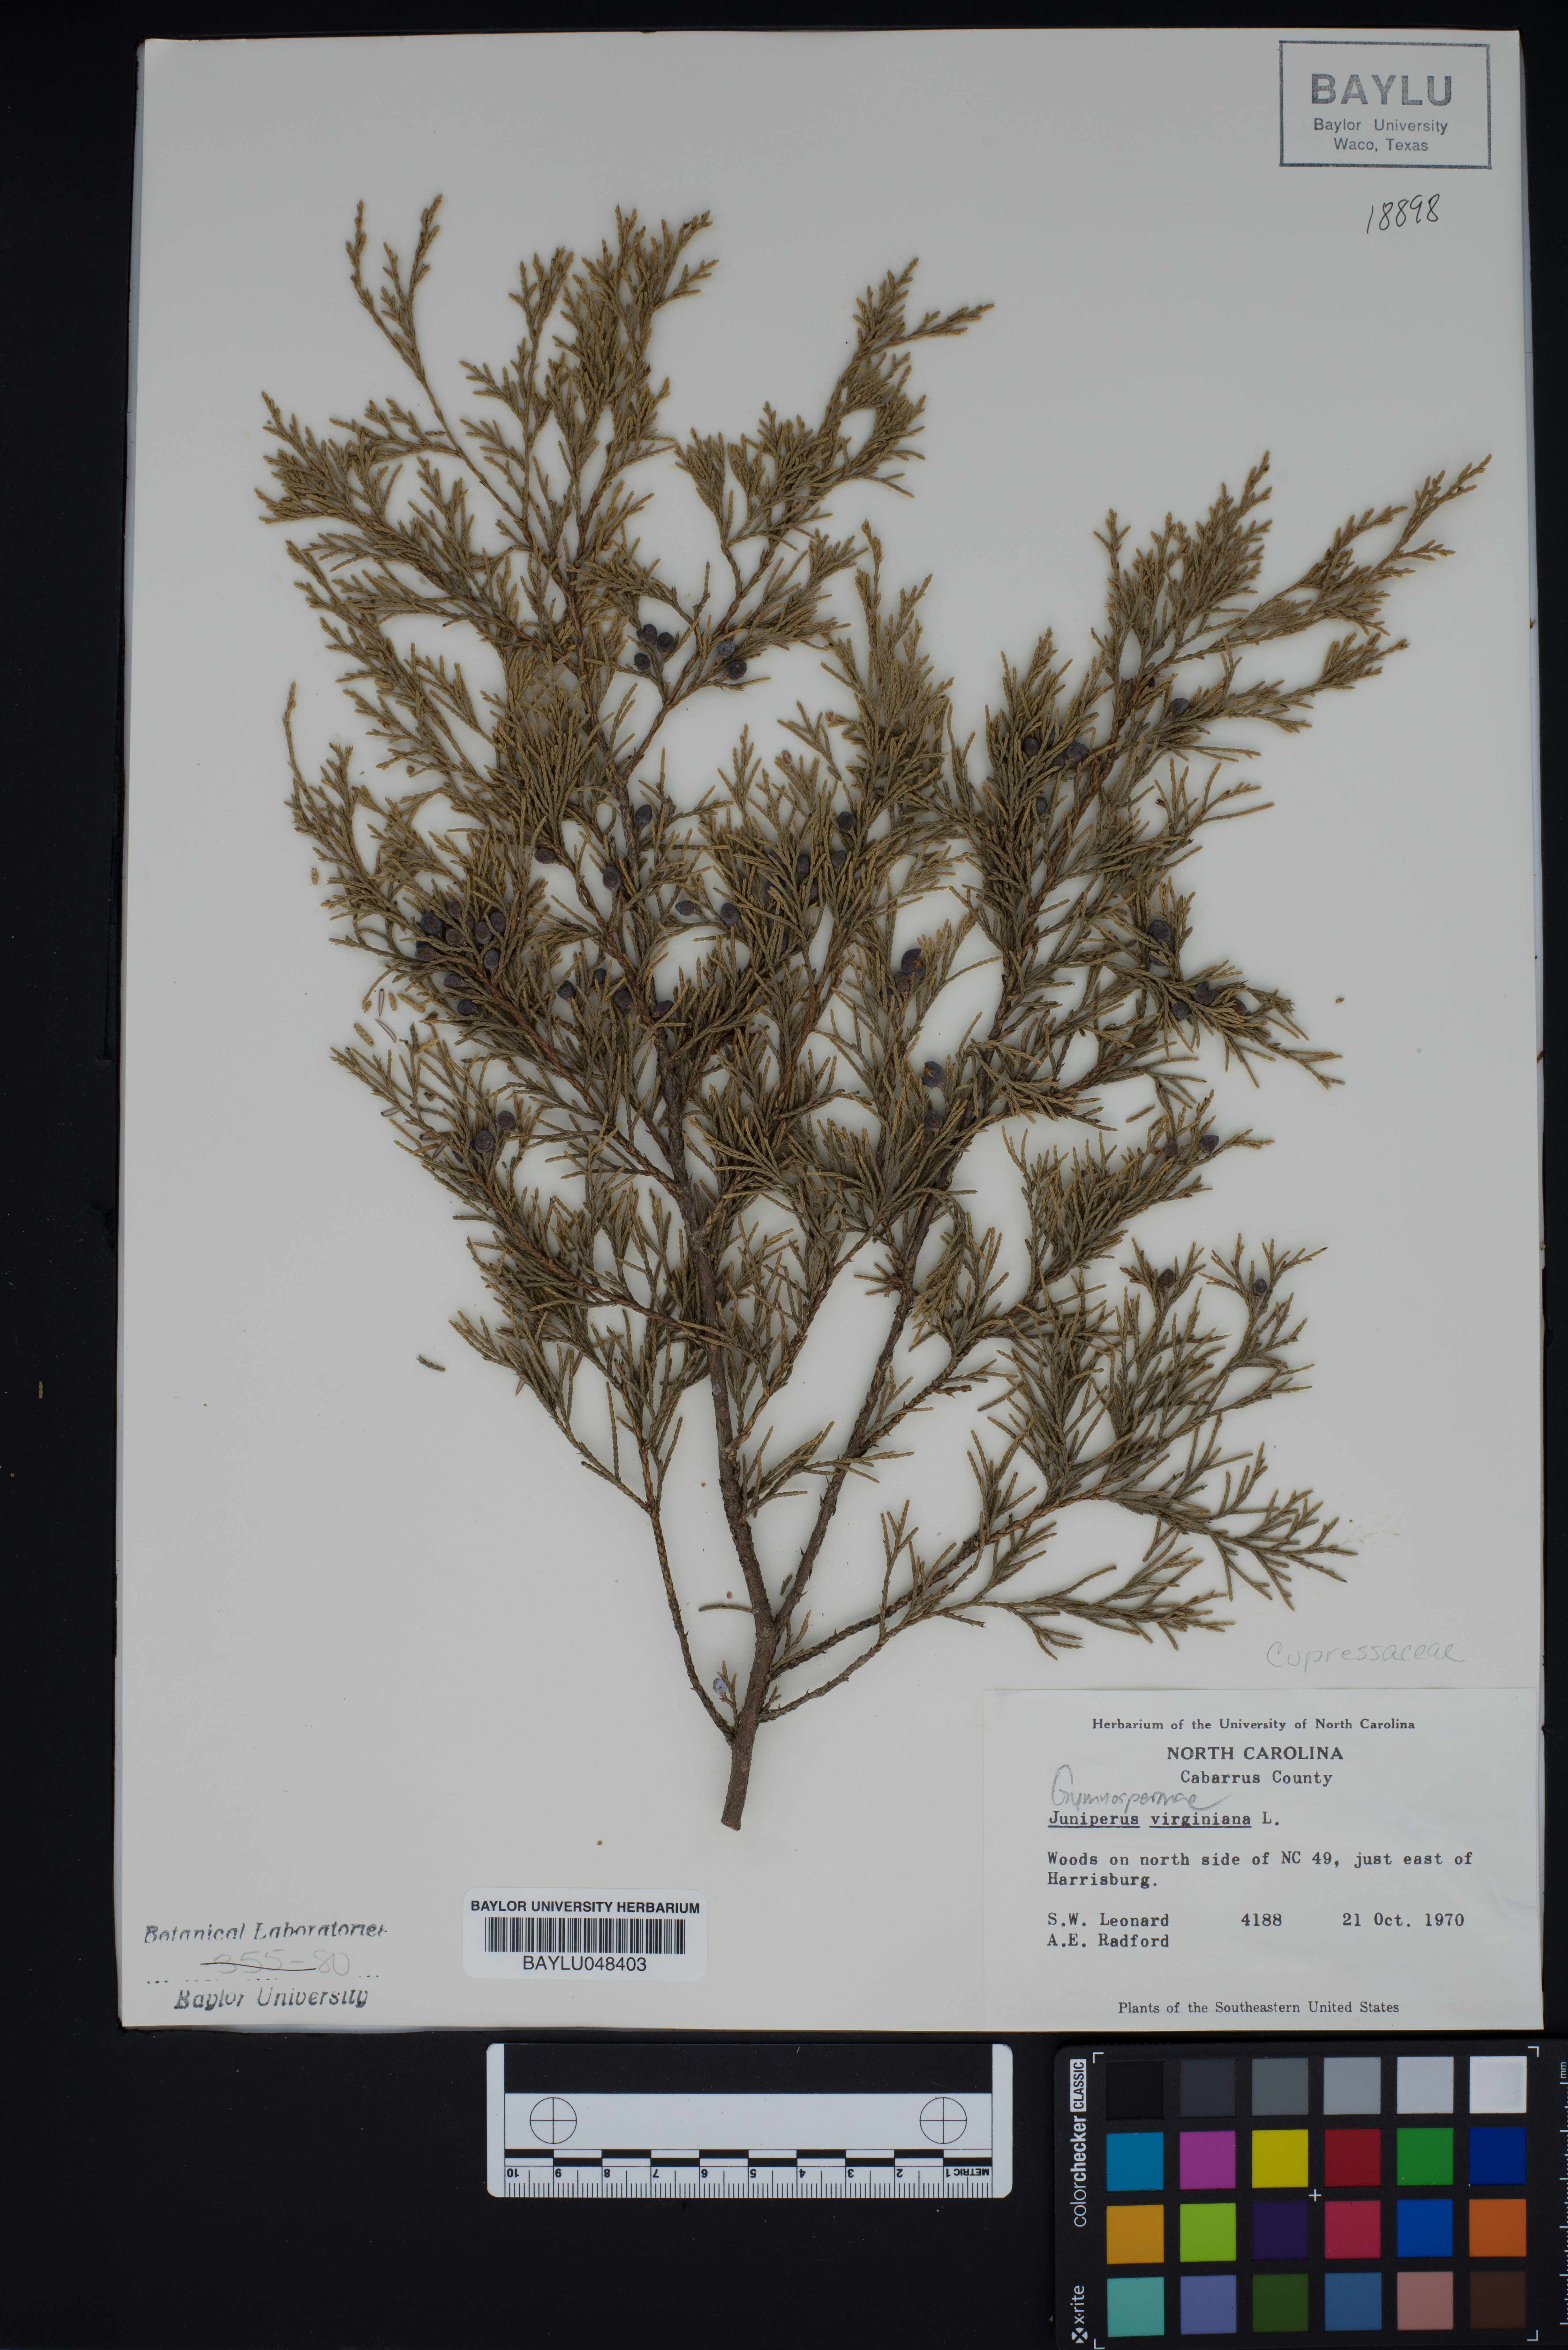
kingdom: Plantae
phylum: Tracheophyta
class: Pinopsida
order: Pinales
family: Cupressaceae
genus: Juniperus
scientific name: Juniperus virginiana
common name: Red juniper
